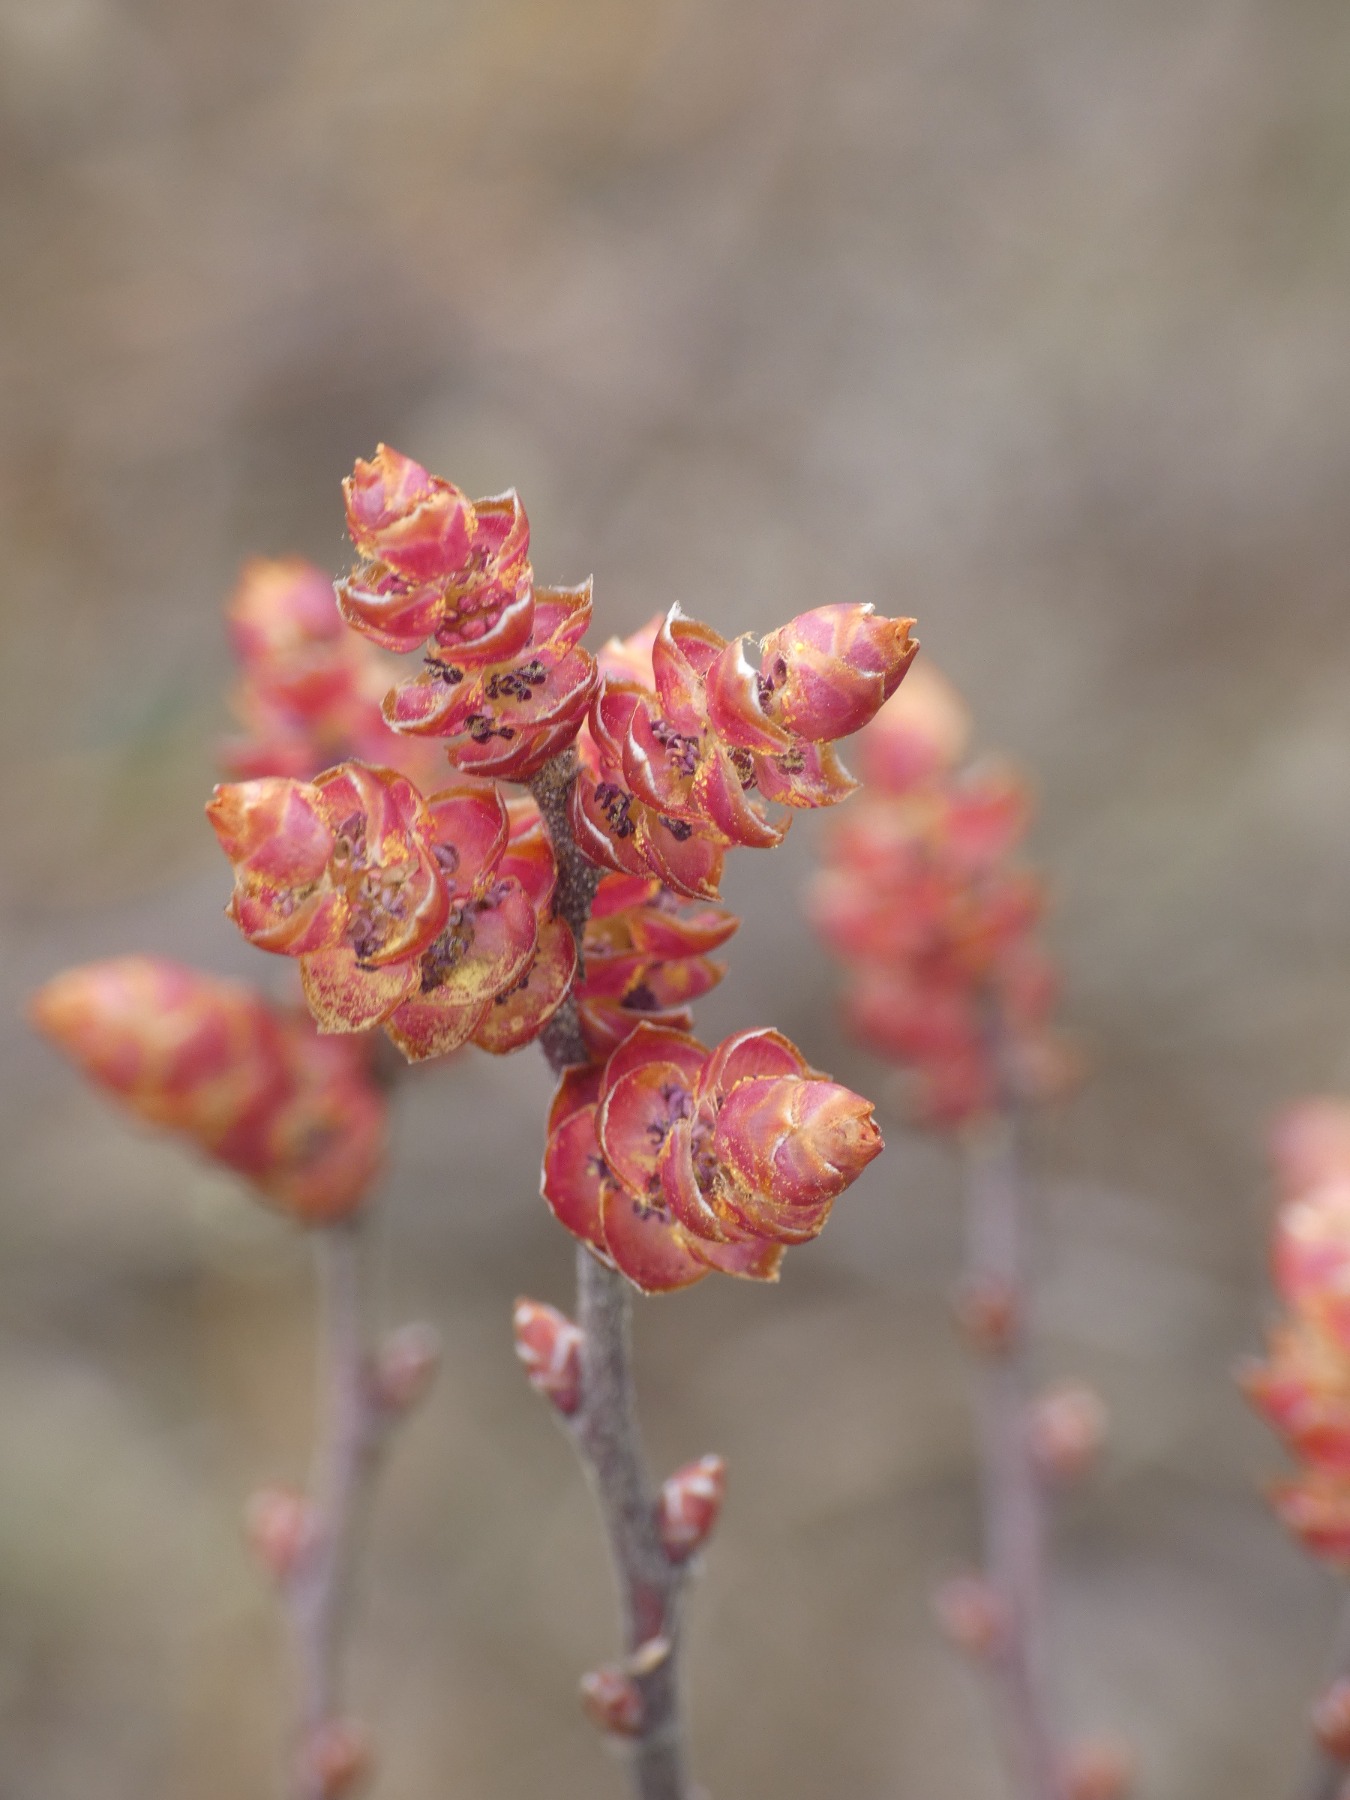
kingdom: Plantae
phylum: Tracheophyta
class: Magnoliopsida
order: Fagales
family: Myricaceae
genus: Myrica
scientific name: Myrica gale
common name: Pors
